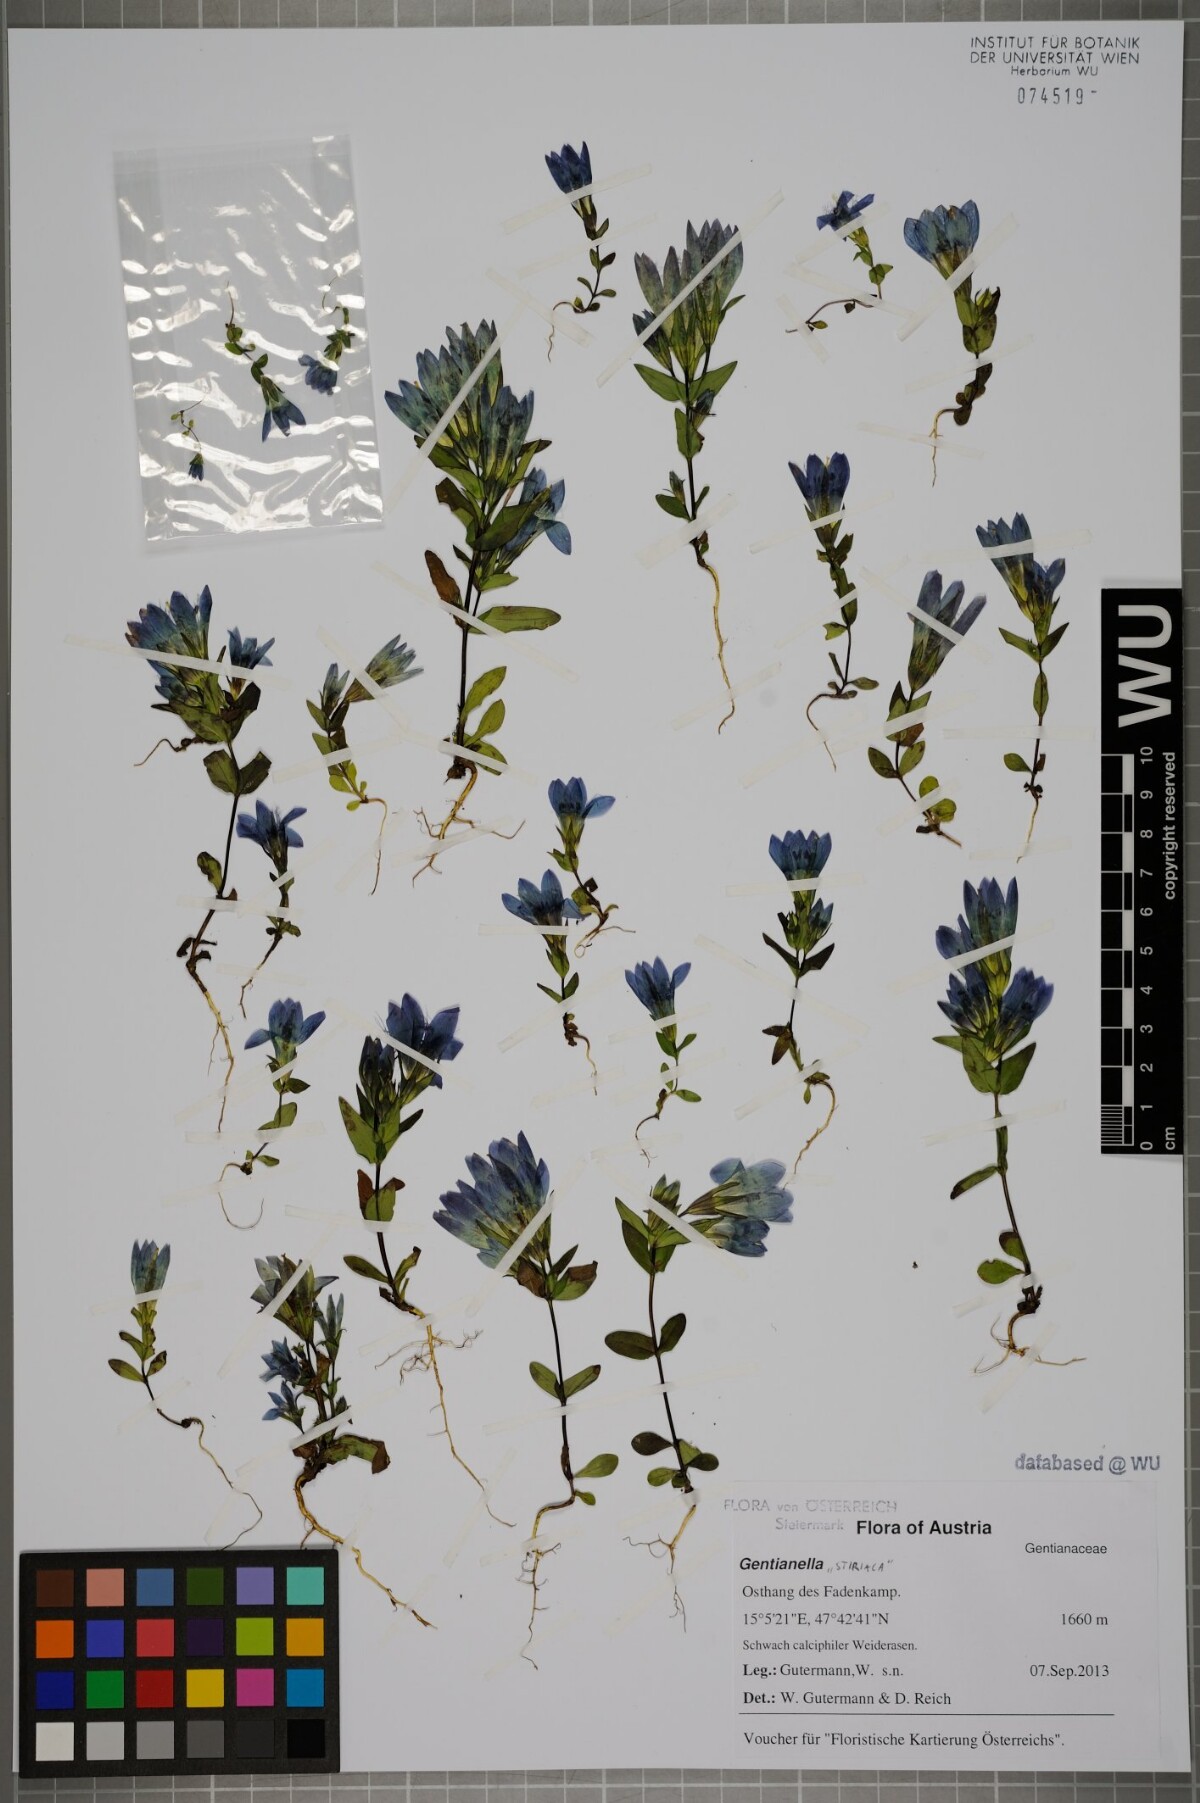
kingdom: Plantae
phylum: Tracheophyta
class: Magnoliopsida
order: Gentianales
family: Gentianaceae
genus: Gentianella
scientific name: Gentianella
